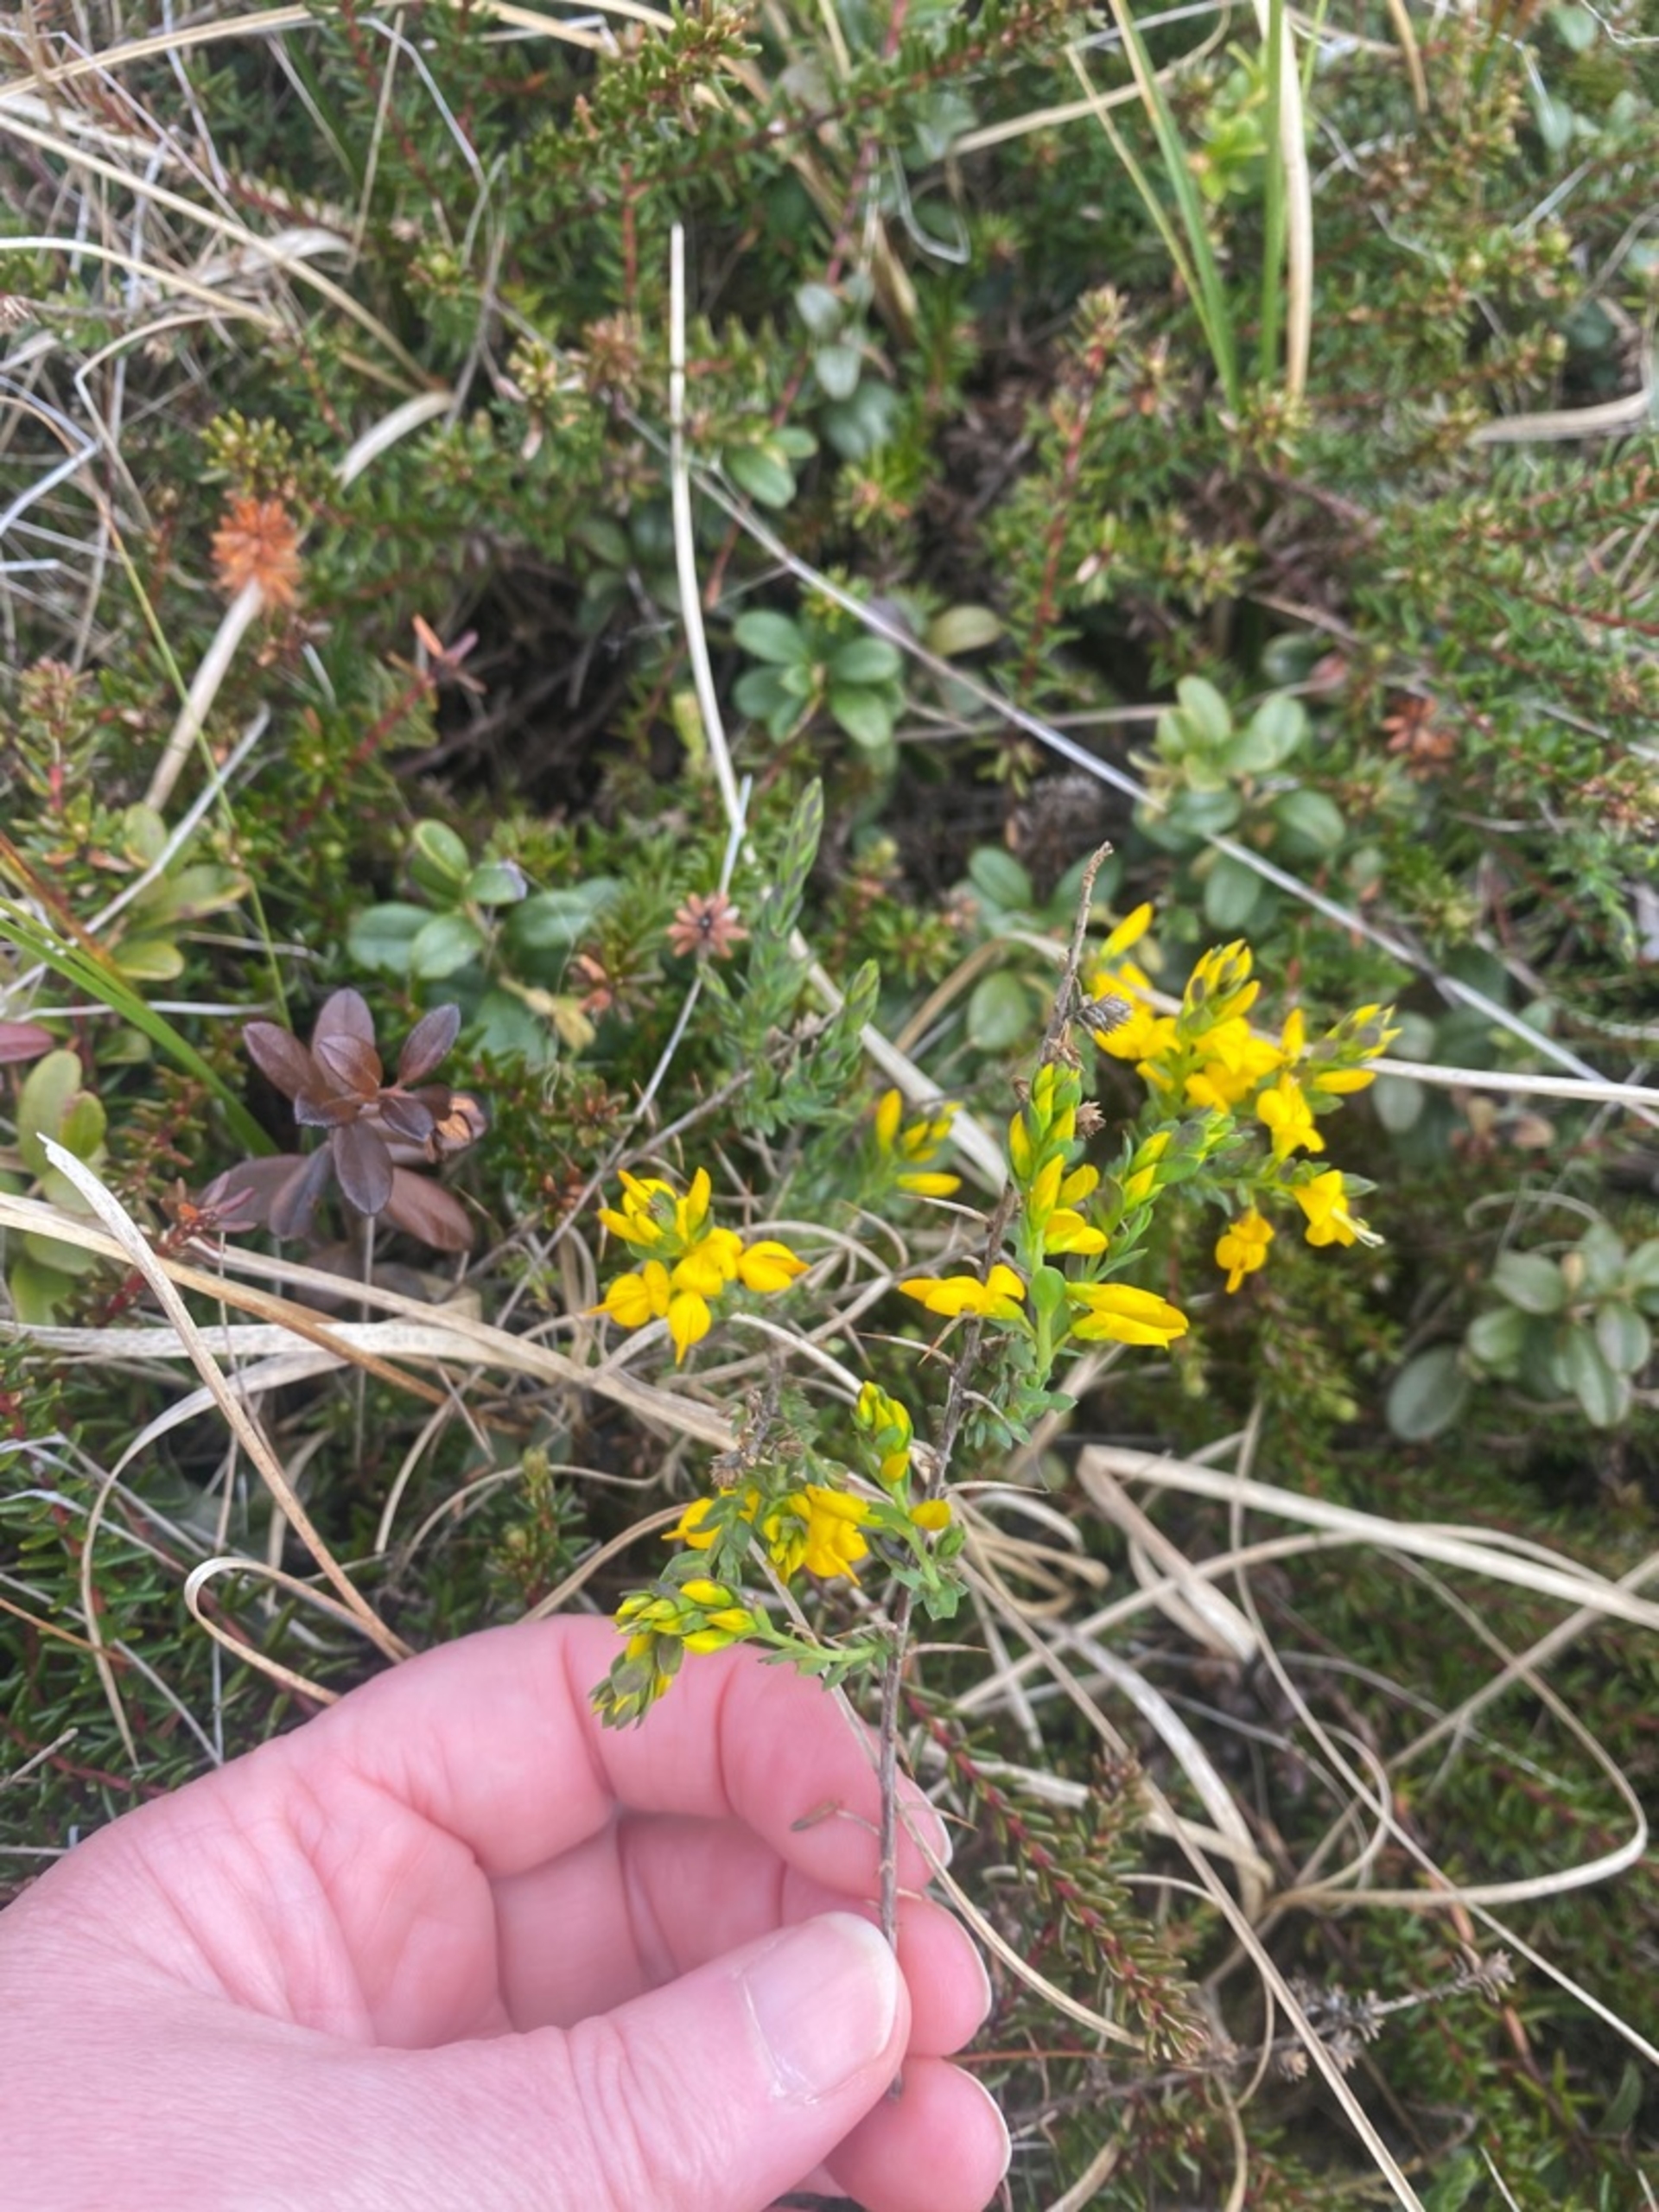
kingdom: Plantae
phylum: Tracheophyta
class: Magnoliopsida
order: Fabales
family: Fabaceae
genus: Genista
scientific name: Genista anglica
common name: Engelsk visse
